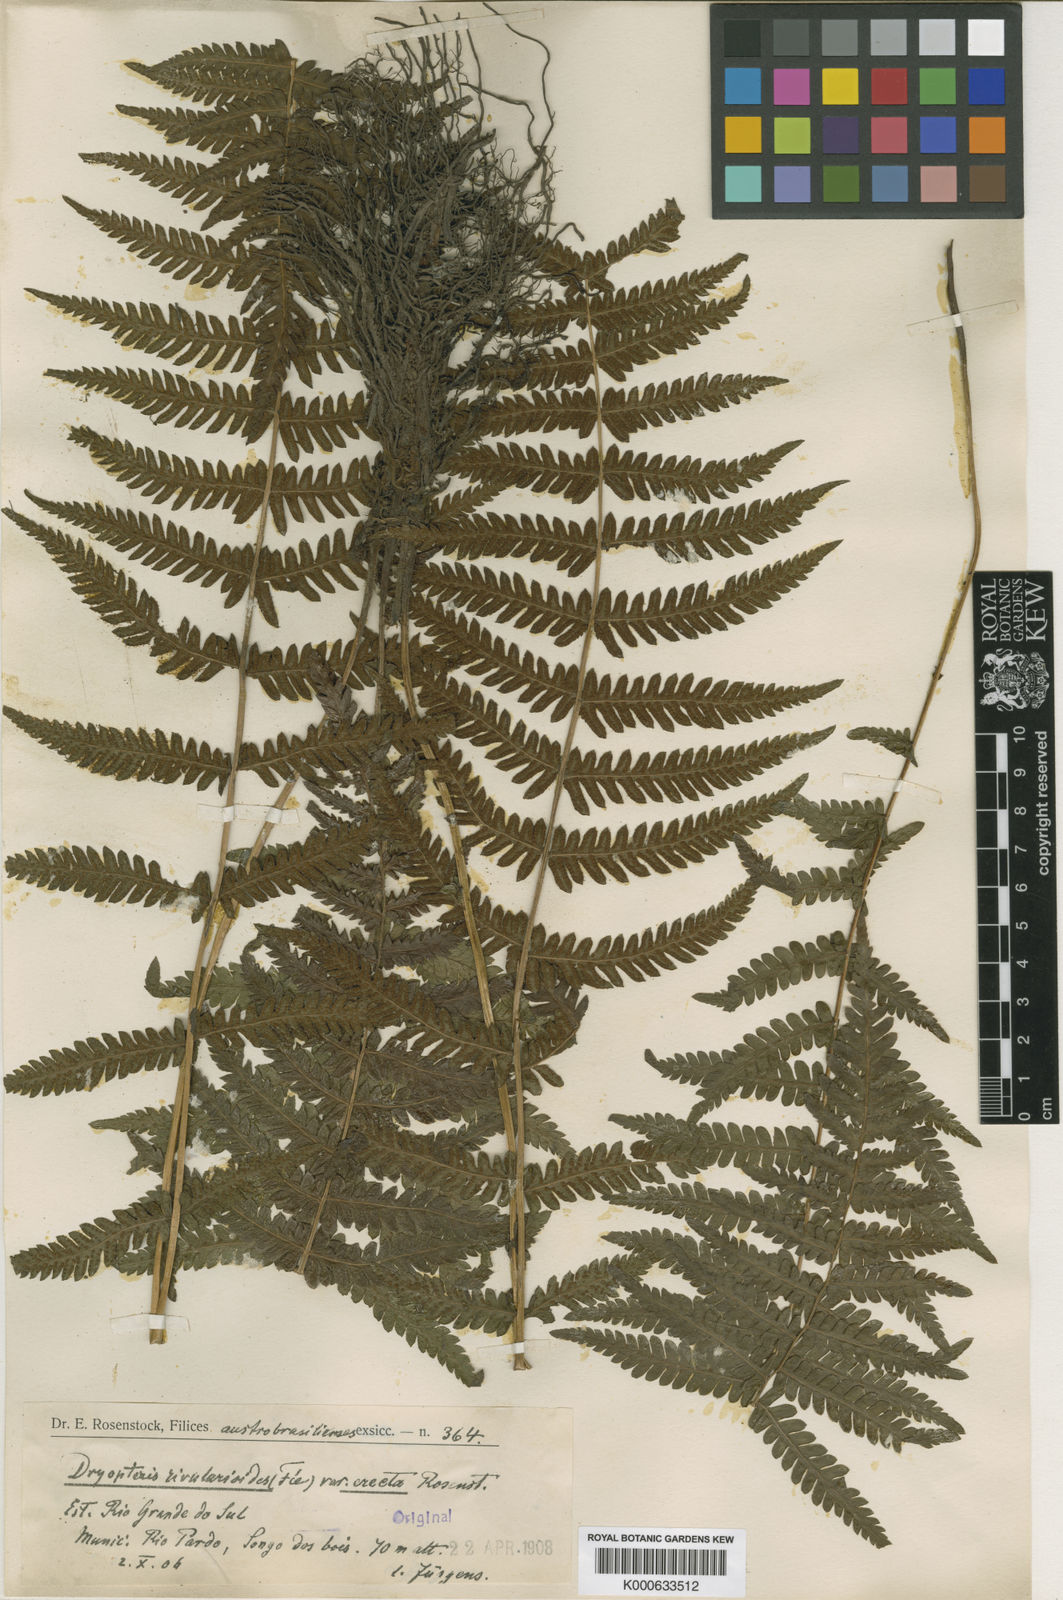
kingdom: Plantae
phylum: Tracheophyta
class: Polypodiopsida
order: Polypodiales
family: Thelypteridaceae
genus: Amauropelta
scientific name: Amauropelta
